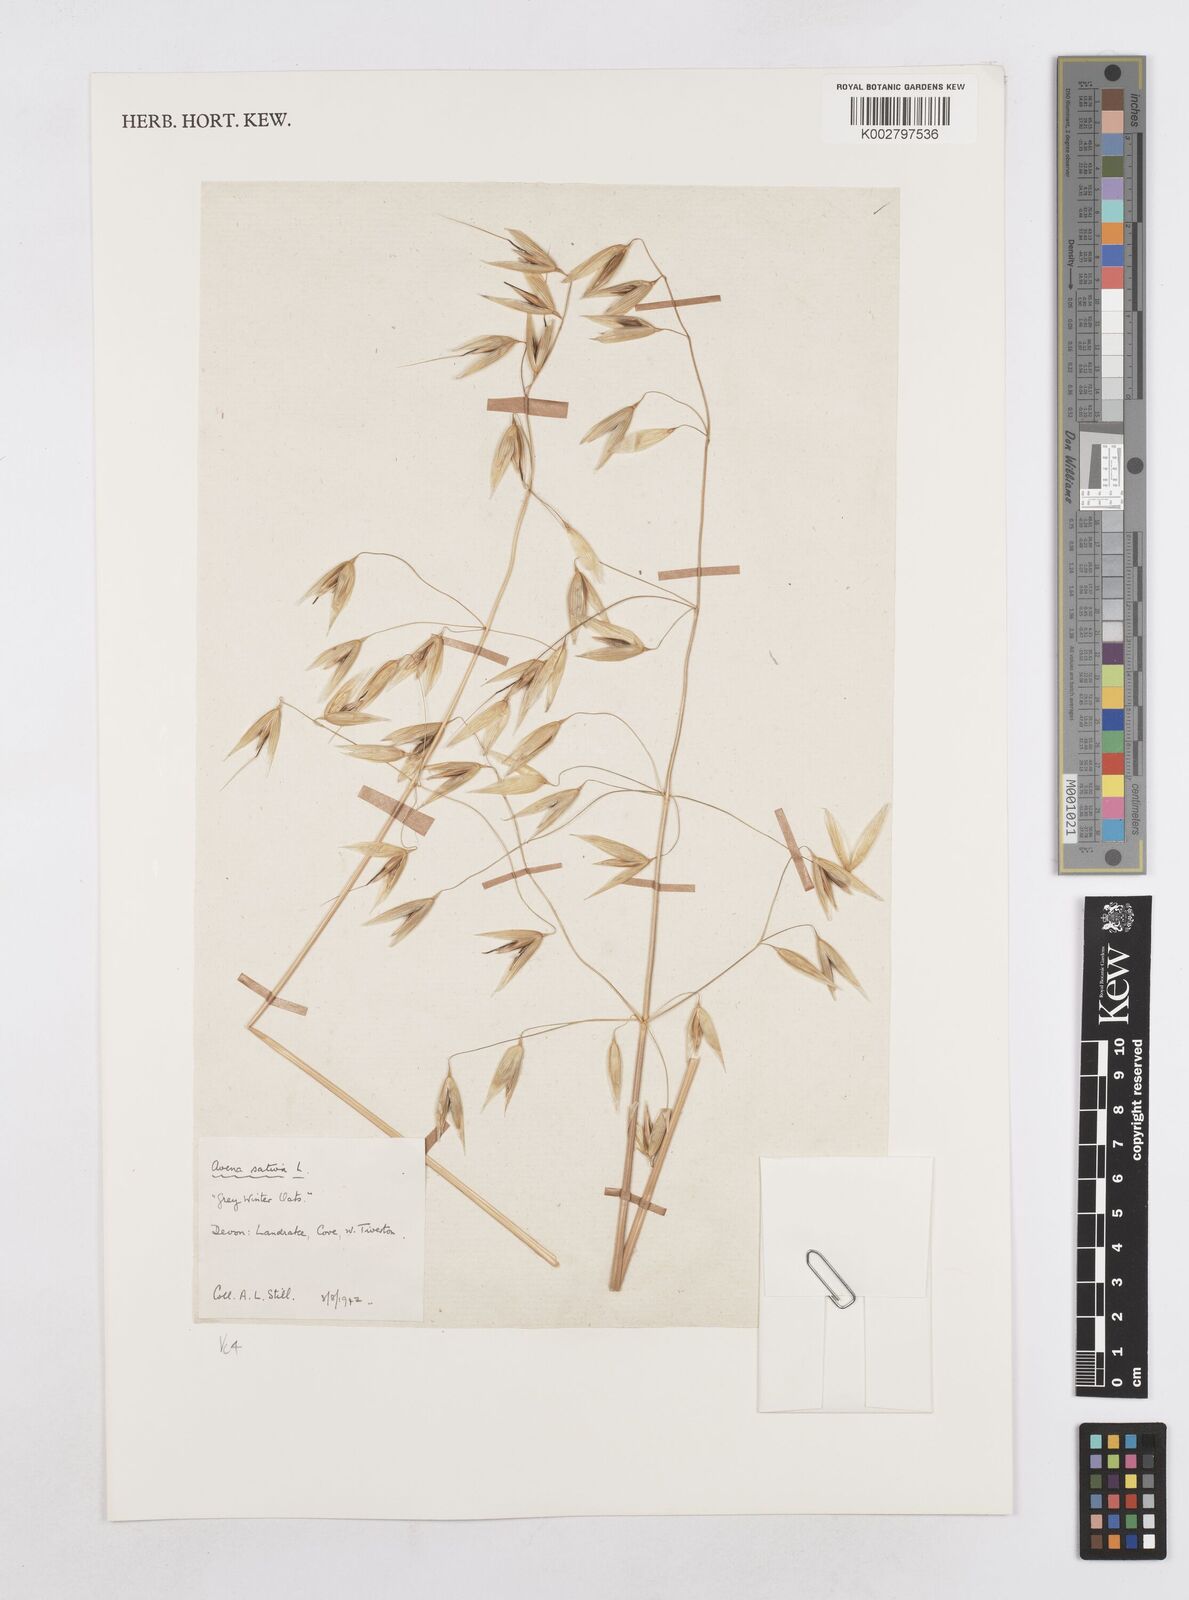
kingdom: Plantae
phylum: Tracheophyta
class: Liliopsida
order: Poales
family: Poaceae
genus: Avena
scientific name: Avena sativa
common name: Oat
